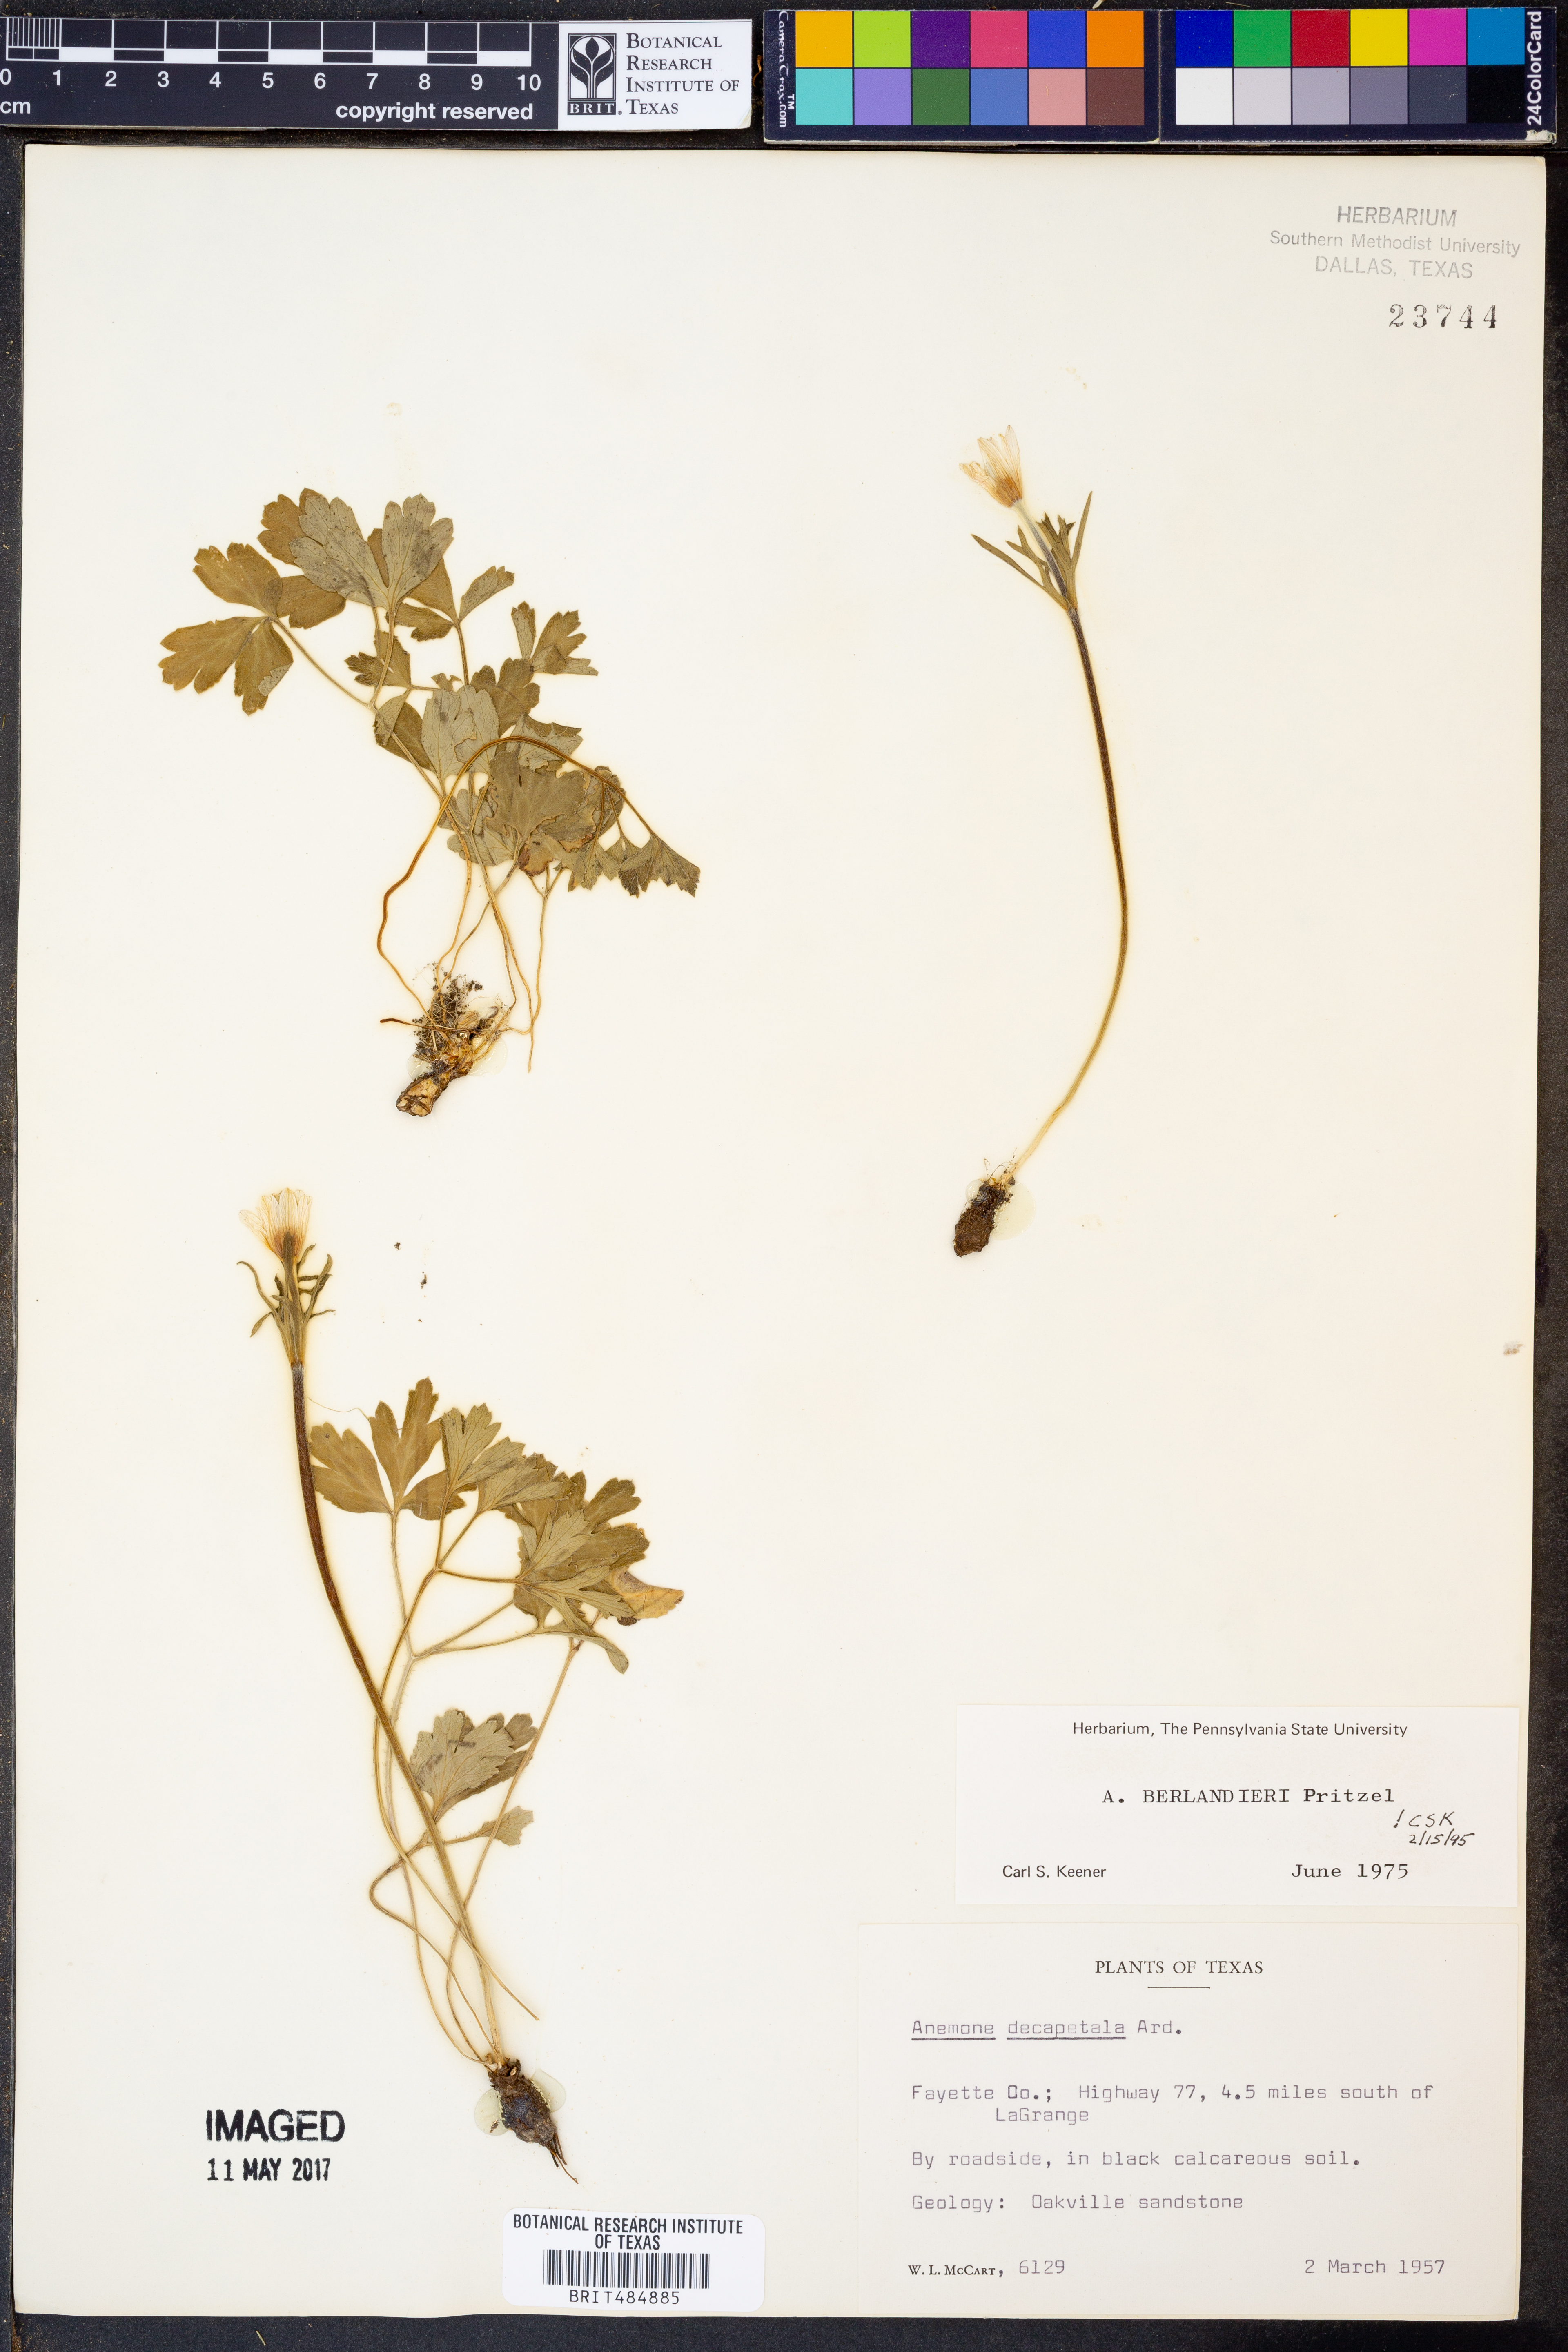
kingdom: Plantae
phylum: Tracheophyta
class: Magnoliopsida
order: Ranunculales
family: Ranunculaceae
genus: Anemone
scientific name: Anemone berlandieri
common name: Ten-petal anemone
